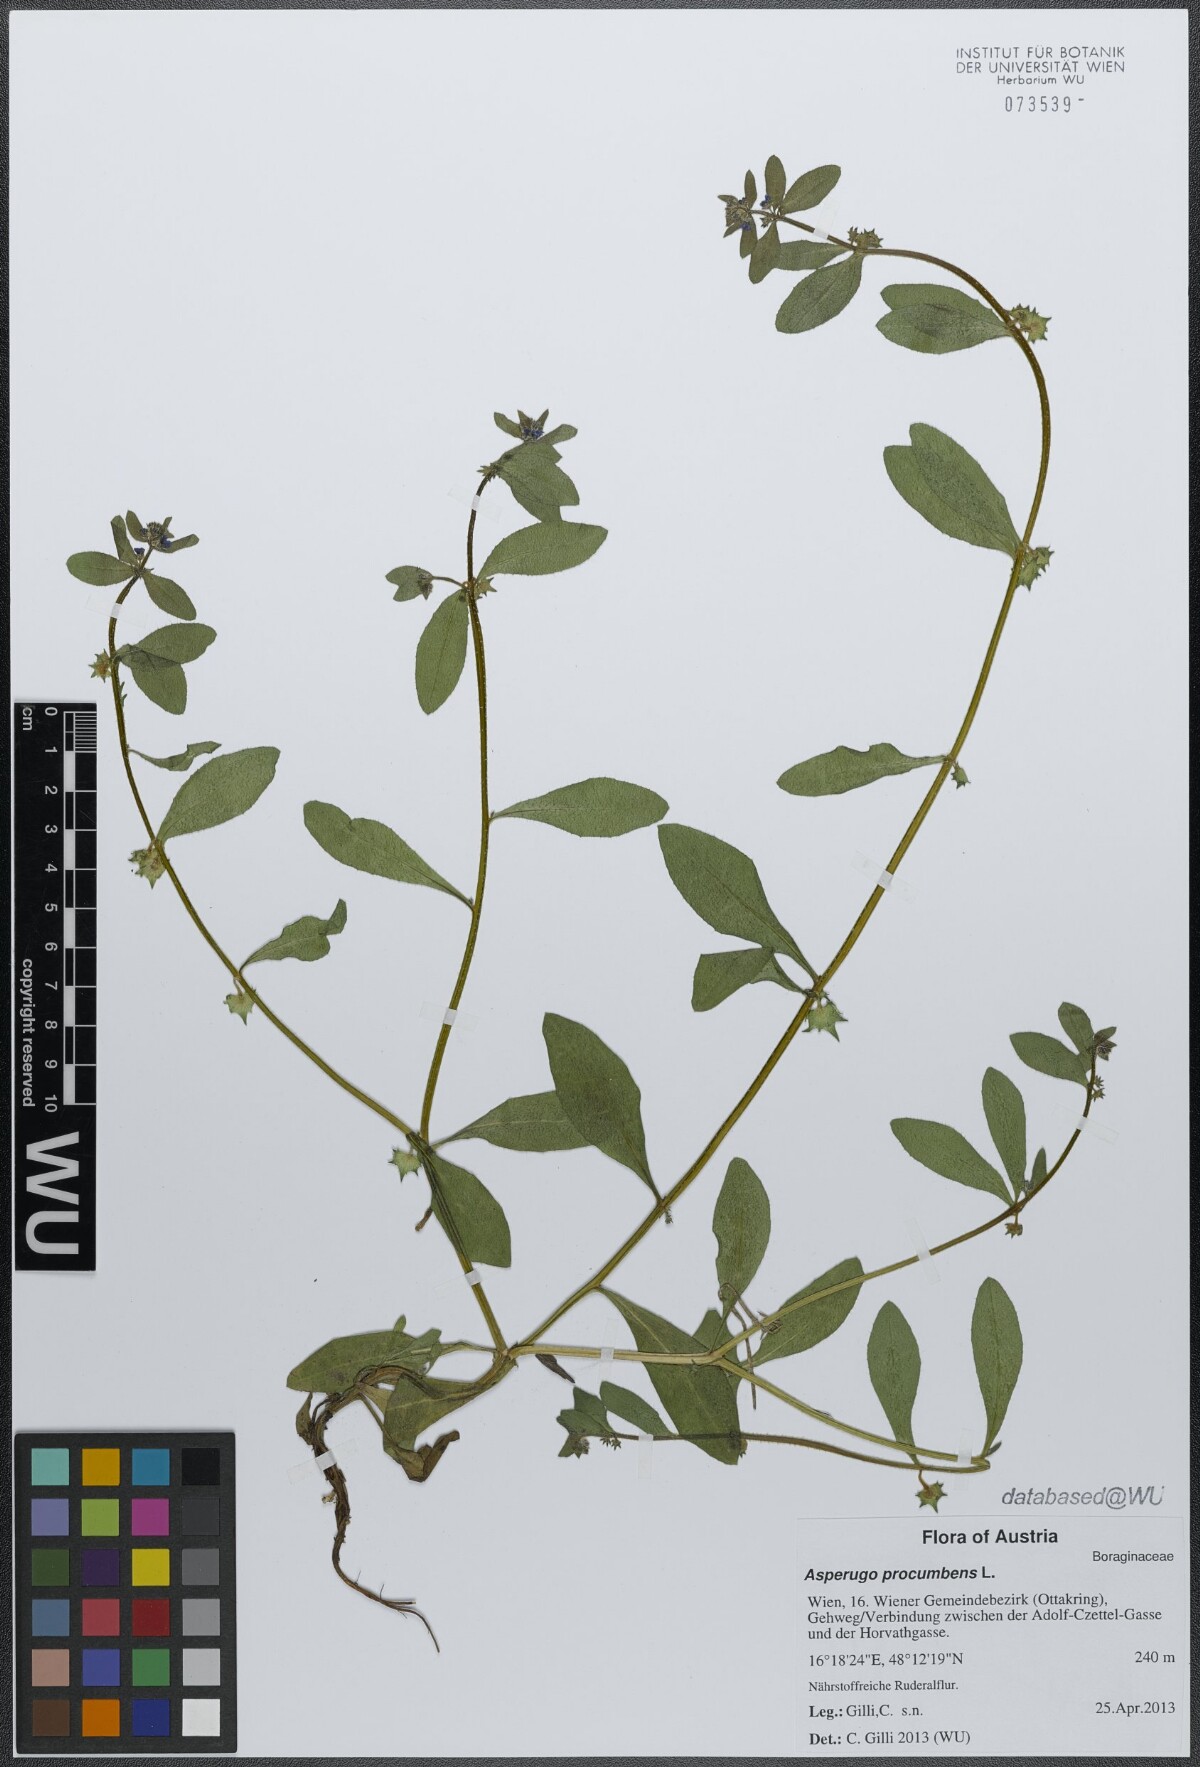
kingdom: Plantae
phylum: Tracheophyta
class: Magnoliopsida
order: Boraginales
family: Boraginaceae
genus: Asperugo
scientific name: Asperugo procumbens
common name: Madwort
